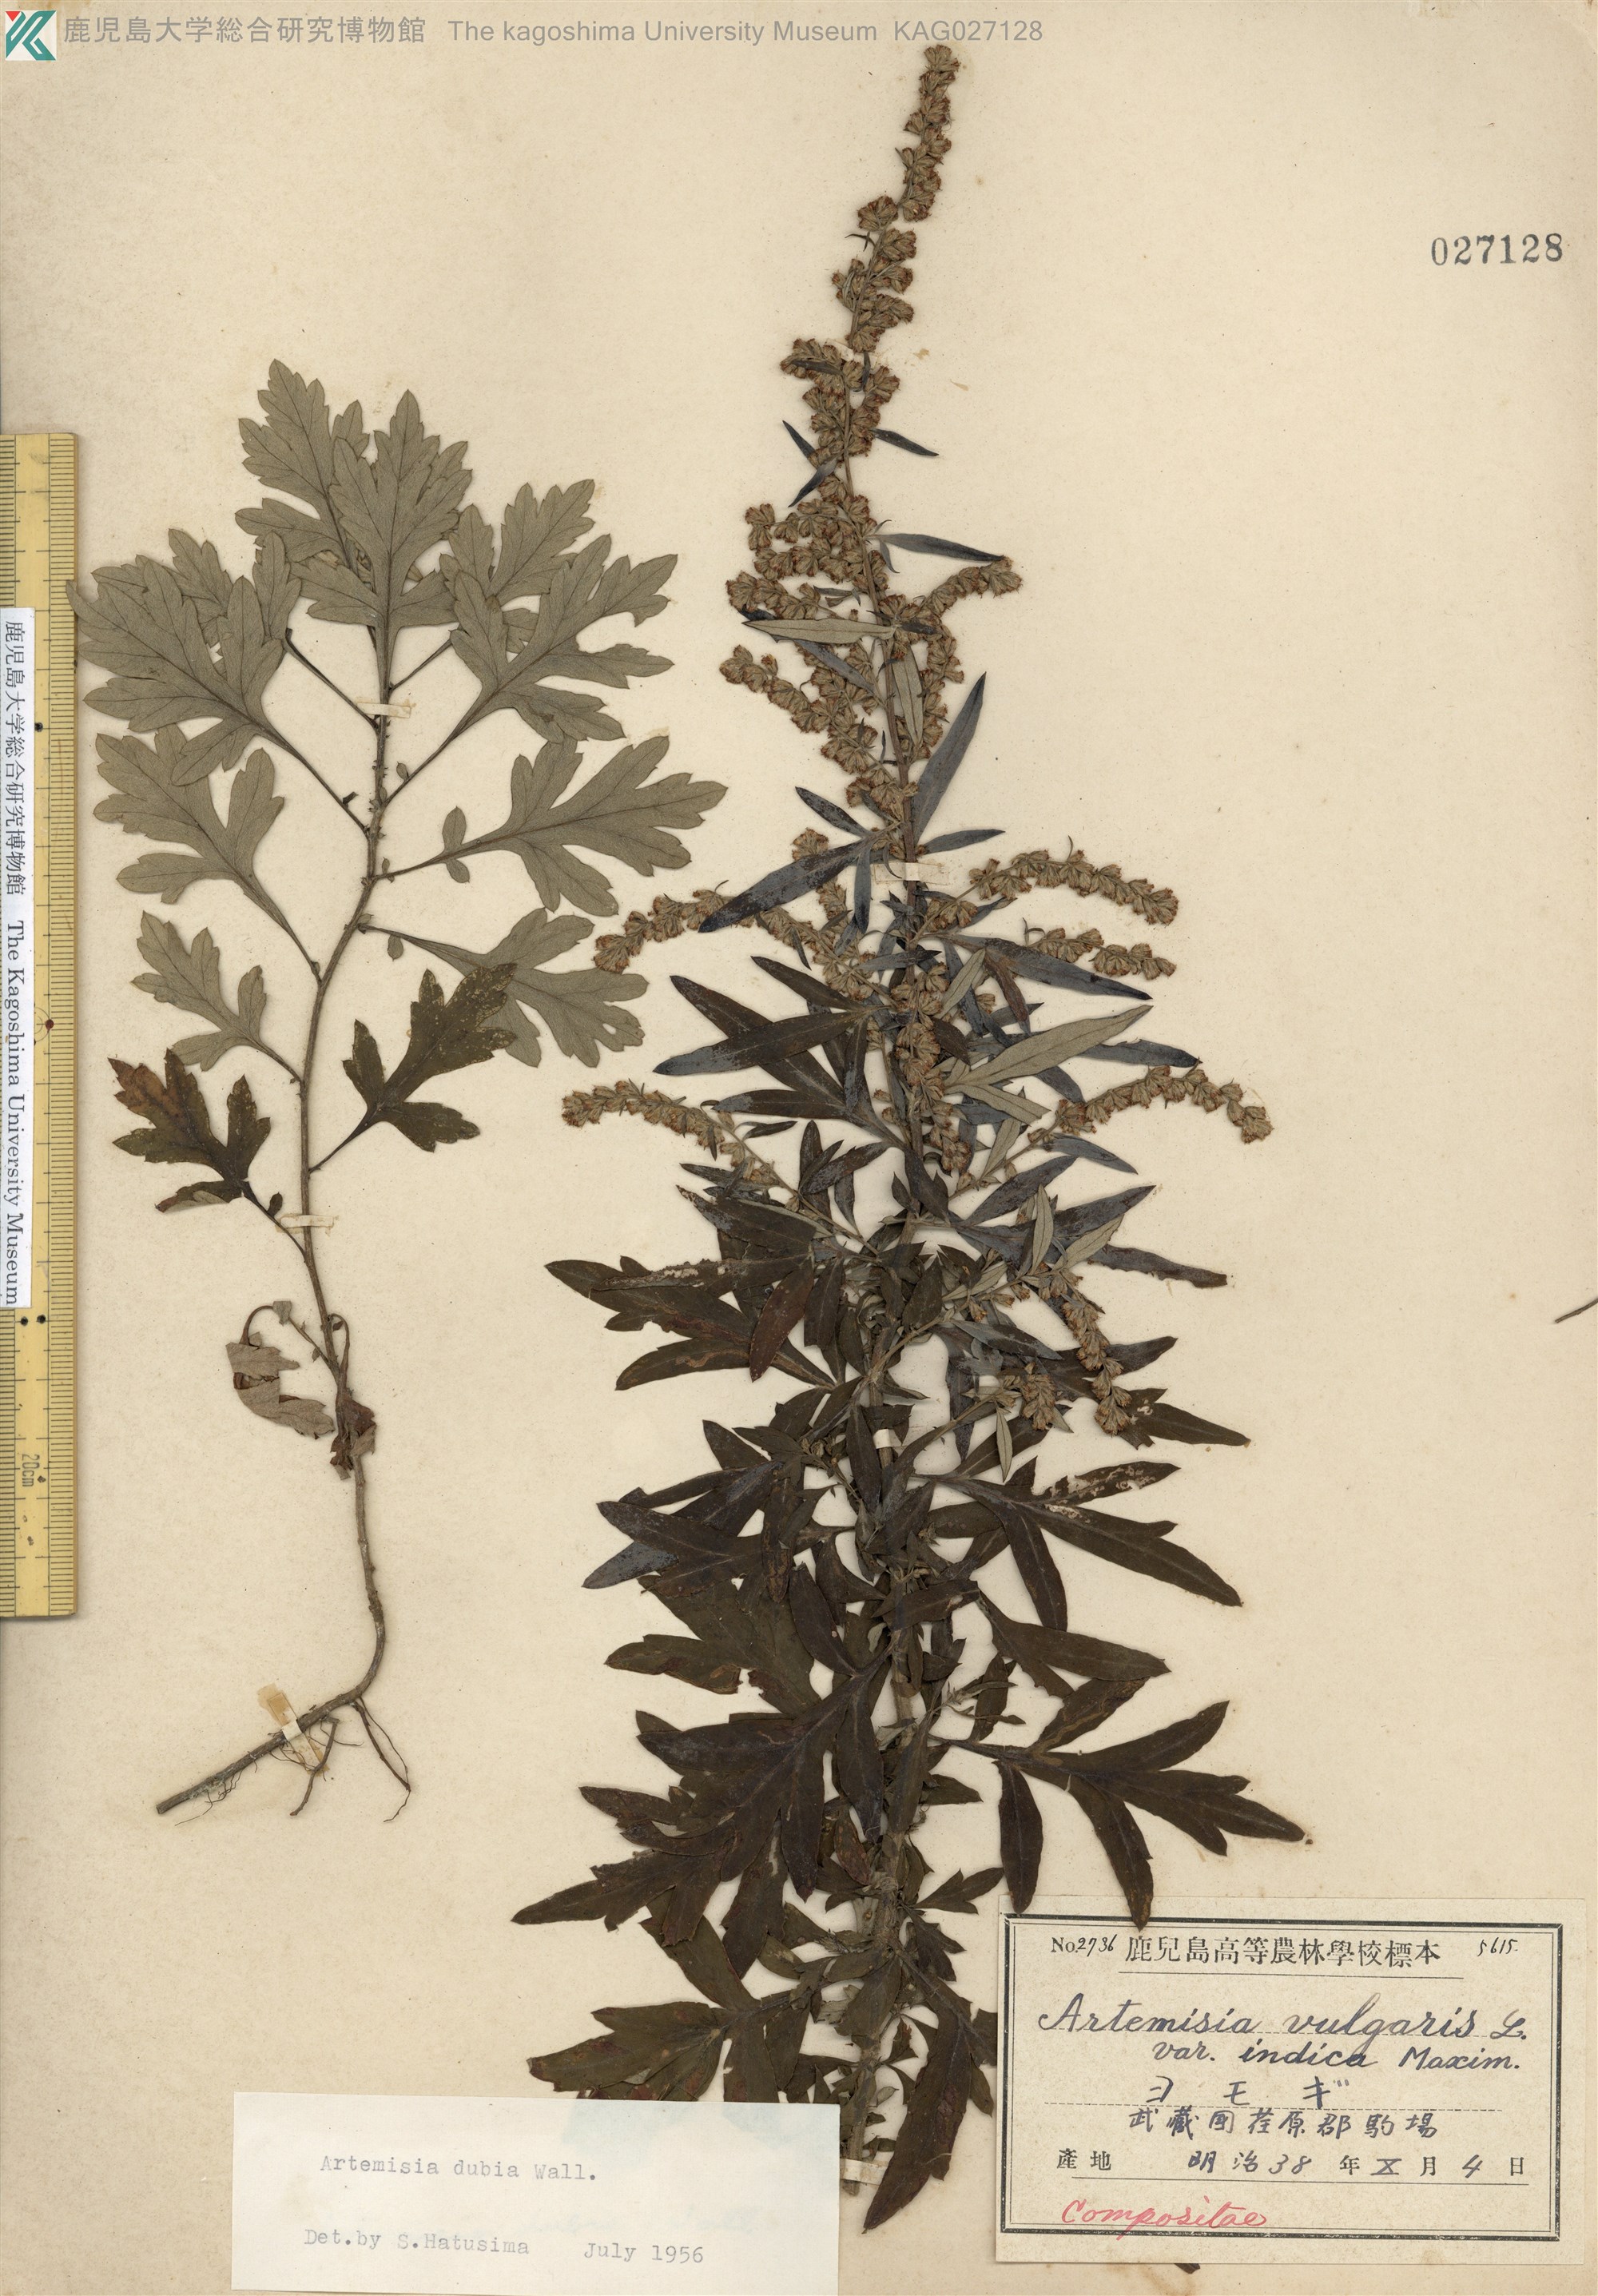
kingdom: Plantae
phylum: Tracheophyta
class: Magnoliopsida
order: Asterales
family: Asteraceae
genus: Artemisia
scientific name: Artemisia indica
